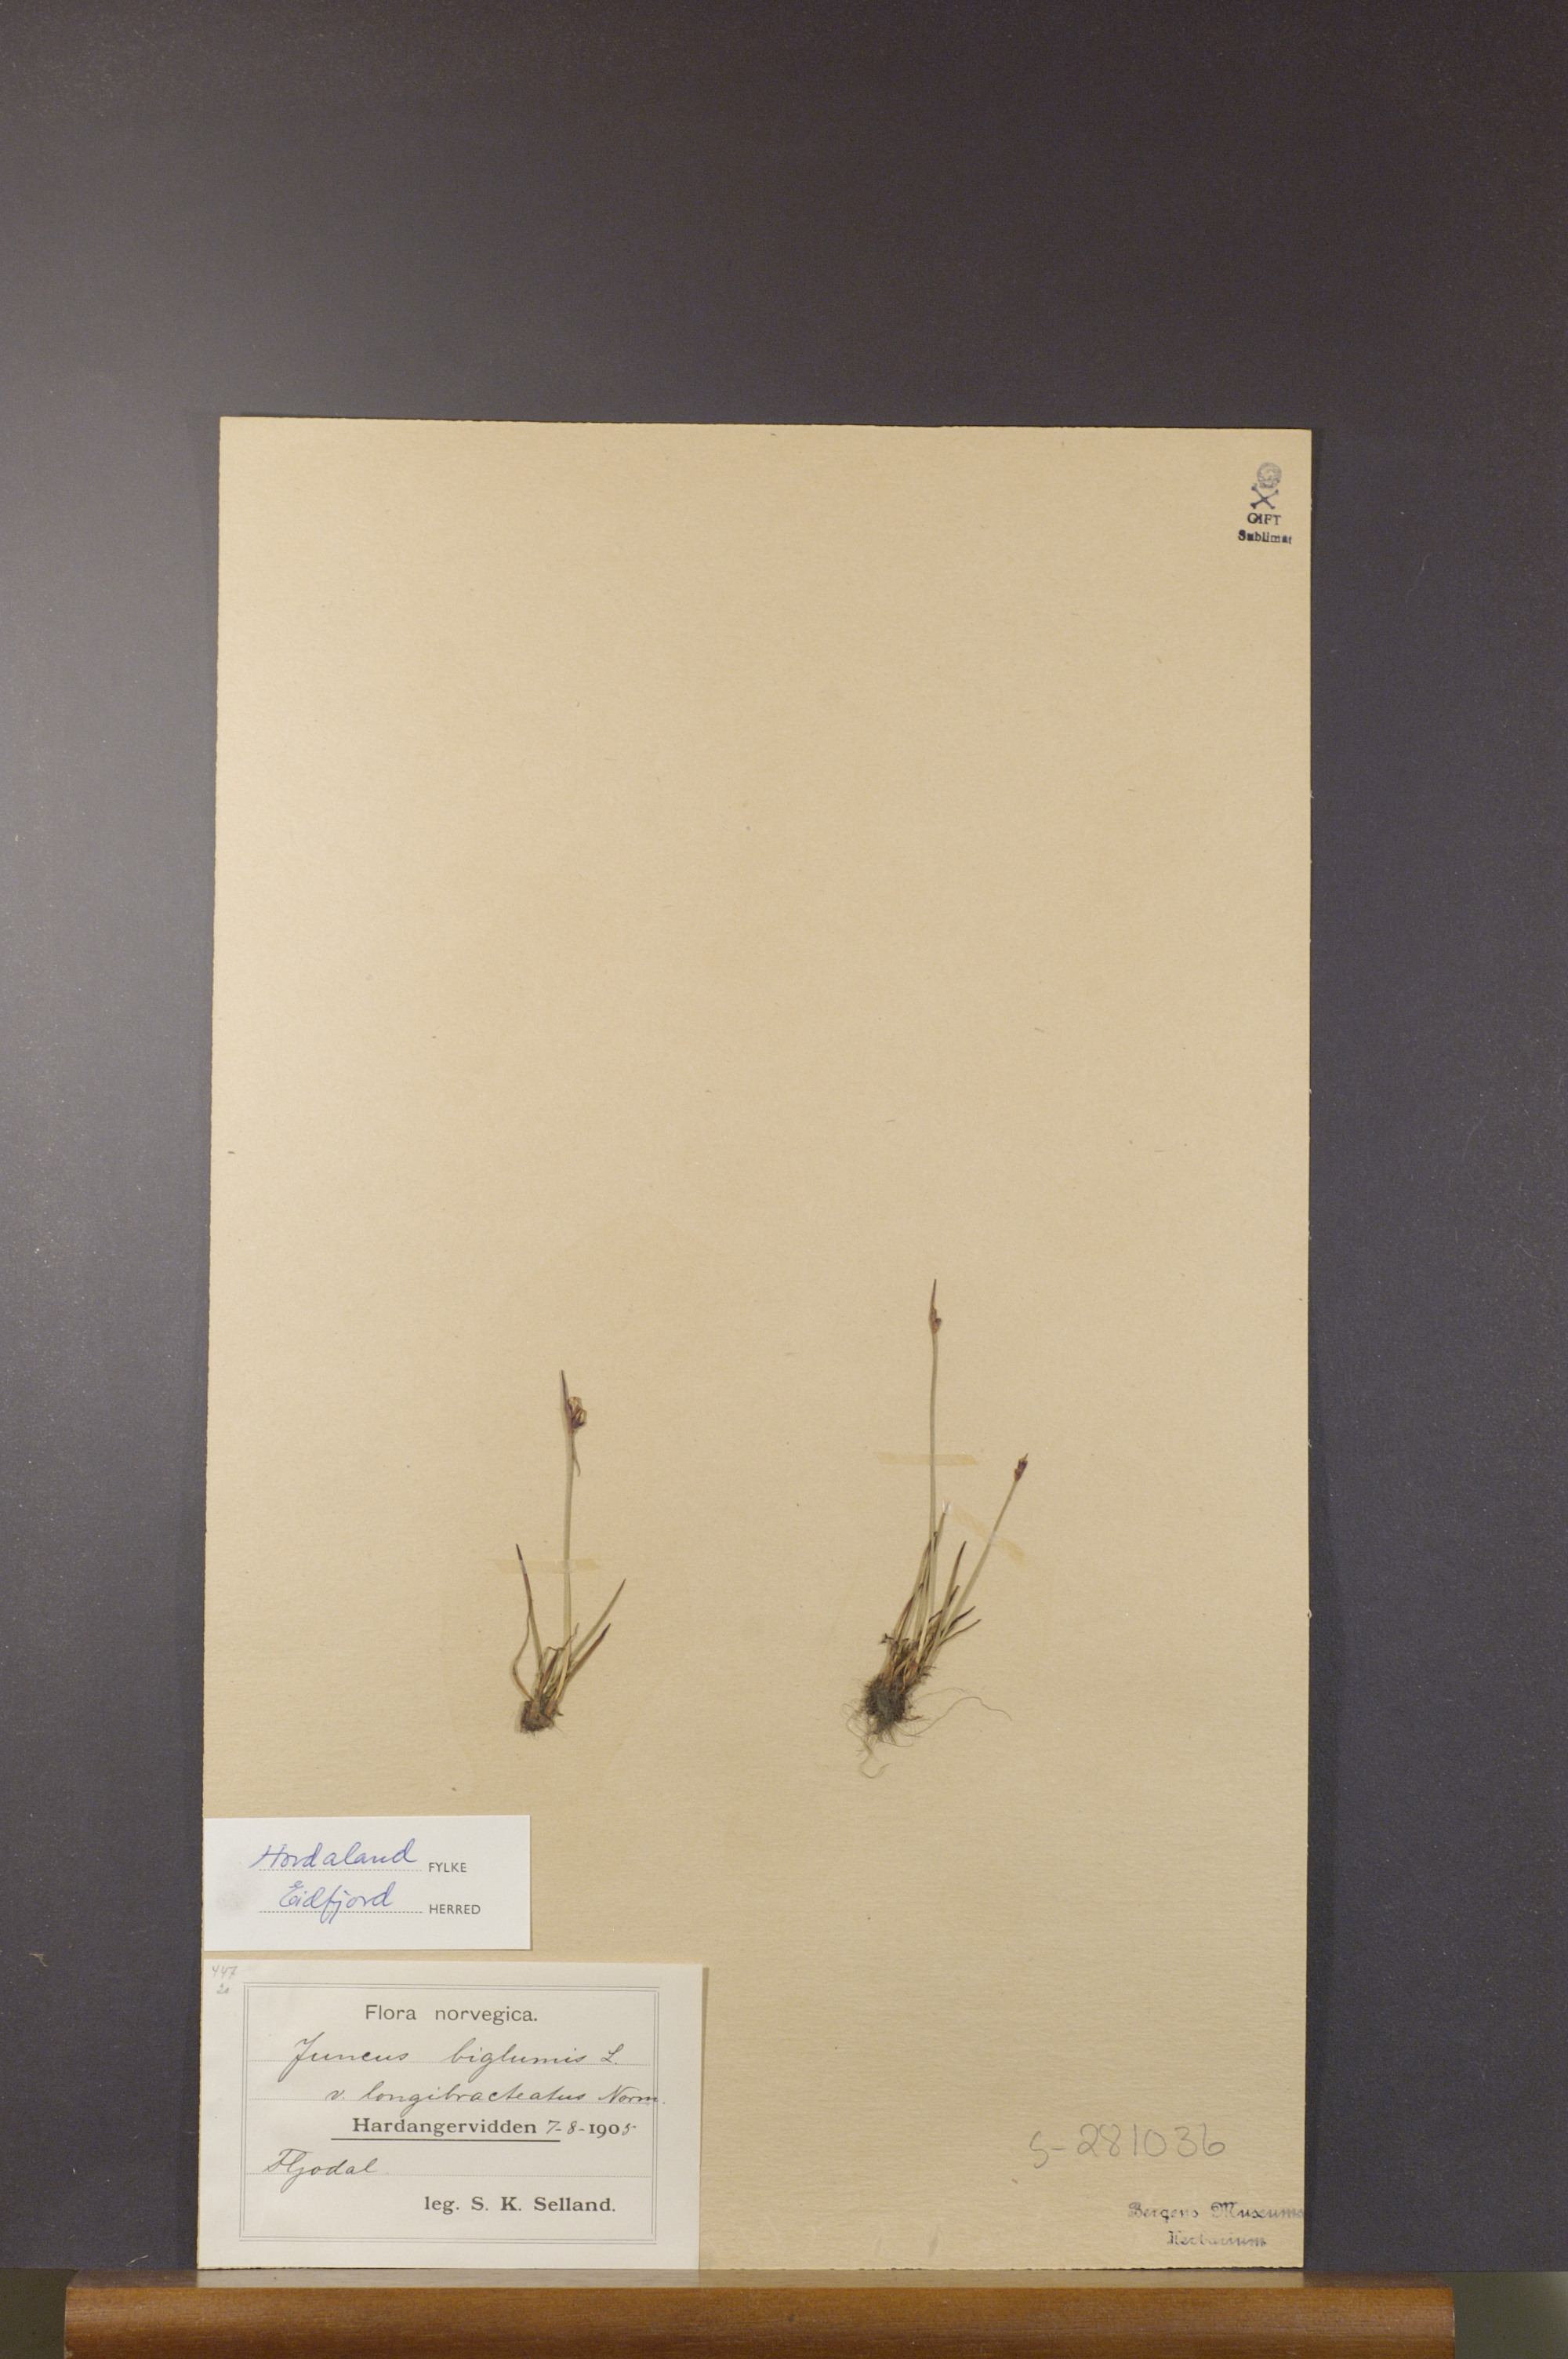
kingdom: Plantae
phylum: Tracheophyta
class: Liliopsida
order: Poales
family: Juncaceae
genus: Juncus
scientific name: Juncus biglumis
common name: Two-flowered rush
